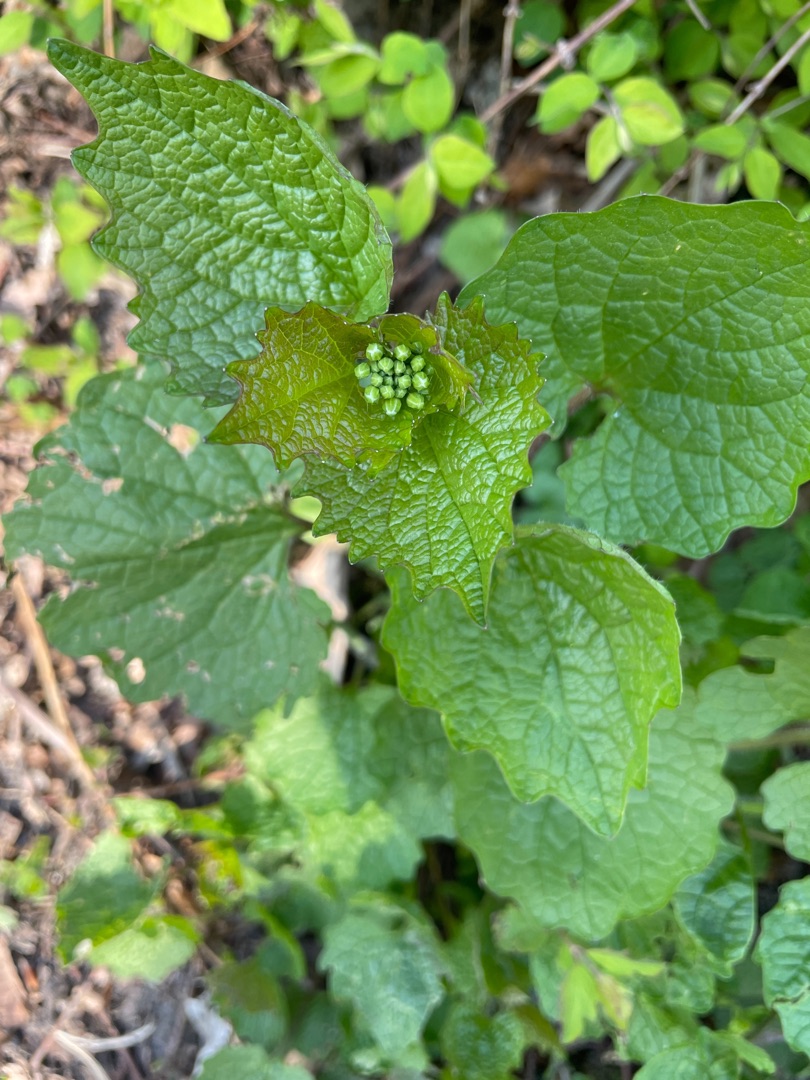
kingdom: Plantae
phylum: Tracheophyta
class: Magnoliopsida
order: Brassicales
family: Brassicaceae
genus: Alliaria
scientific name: Alliaria petiolata
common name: Løgkarse
